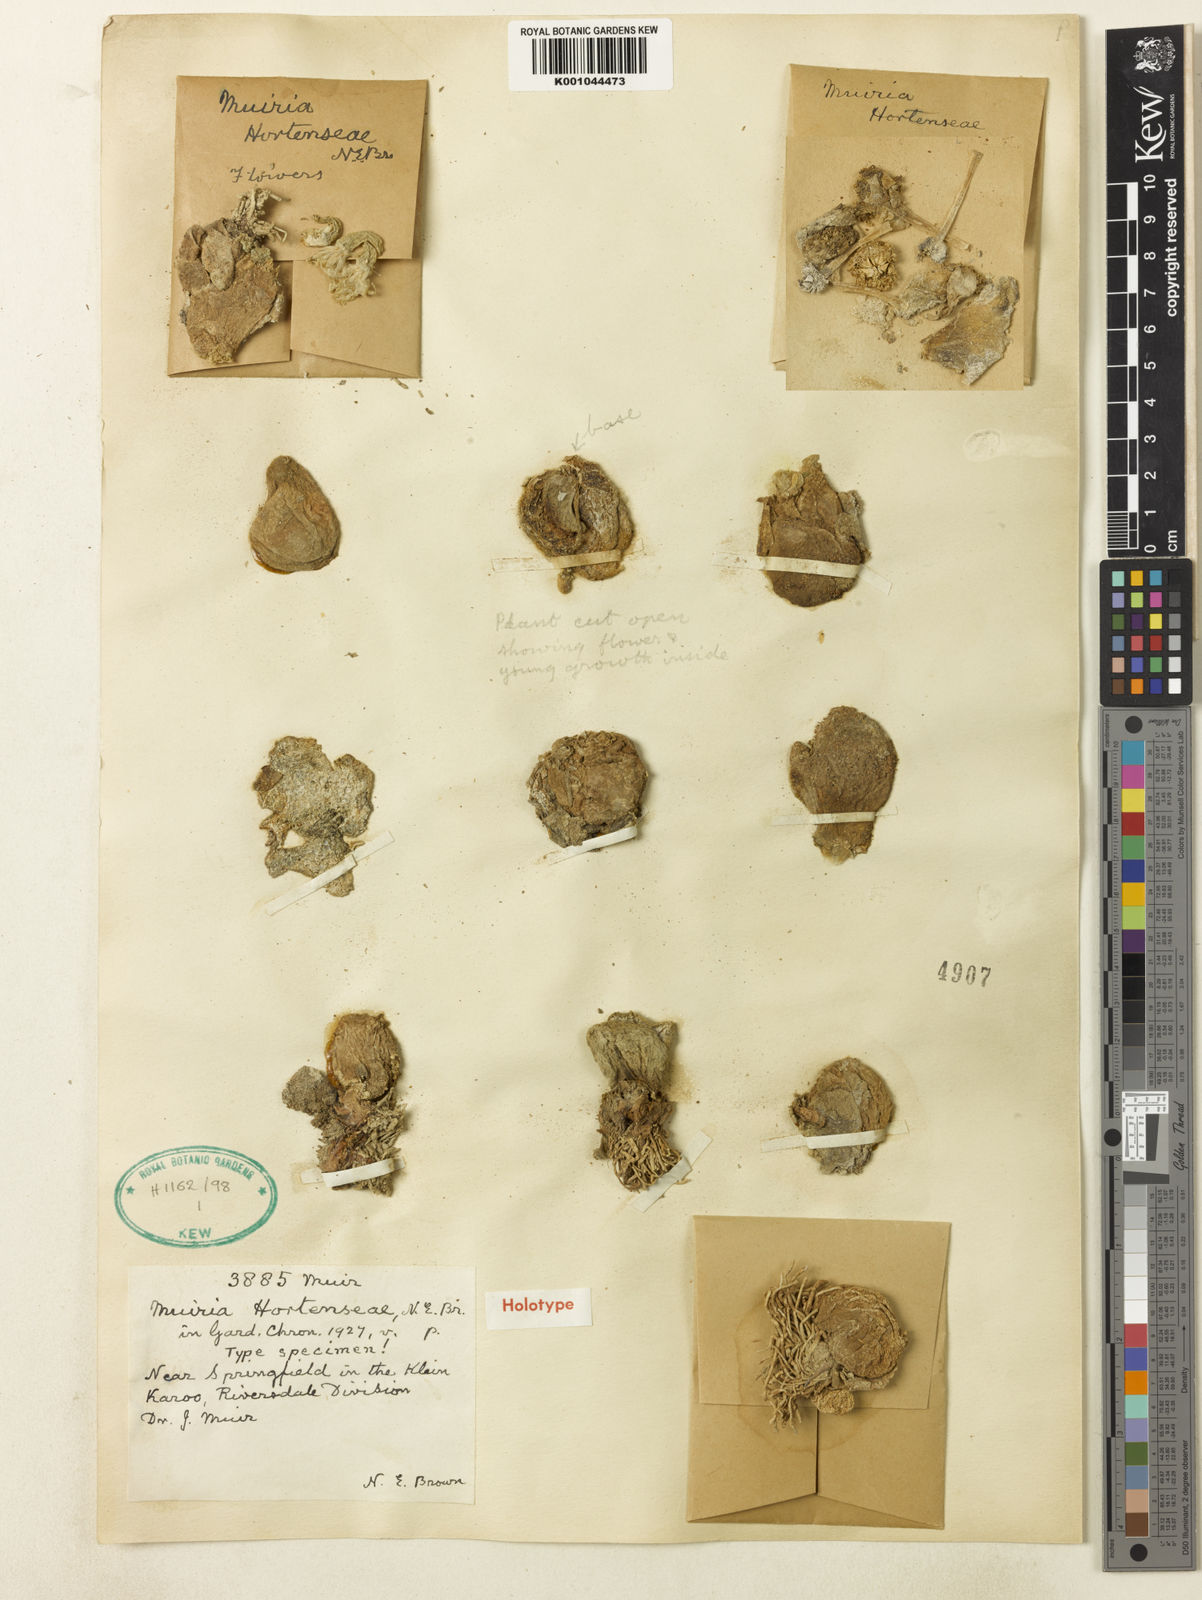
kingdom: Plantae
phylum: Tracheophyta
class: Magnoliopsida
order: Caryophyllales
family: Aizoaceae
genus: Gibbaeum
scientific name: Gibbaeum hortenseae
